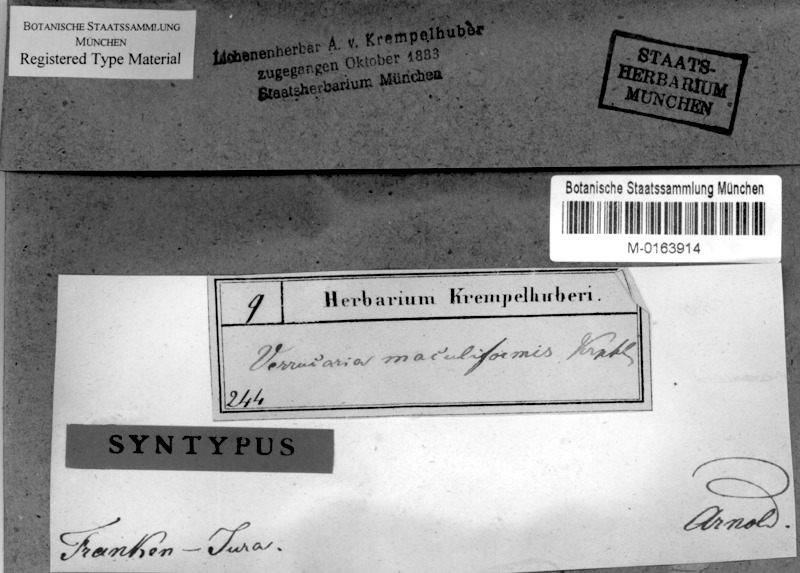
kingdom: Fungi
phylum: Ascomycota
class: Eurotiomycetes
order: Verrucariales
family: Verrucariaceae
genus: Verrucaria
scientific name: Verrucaria maculiformis
